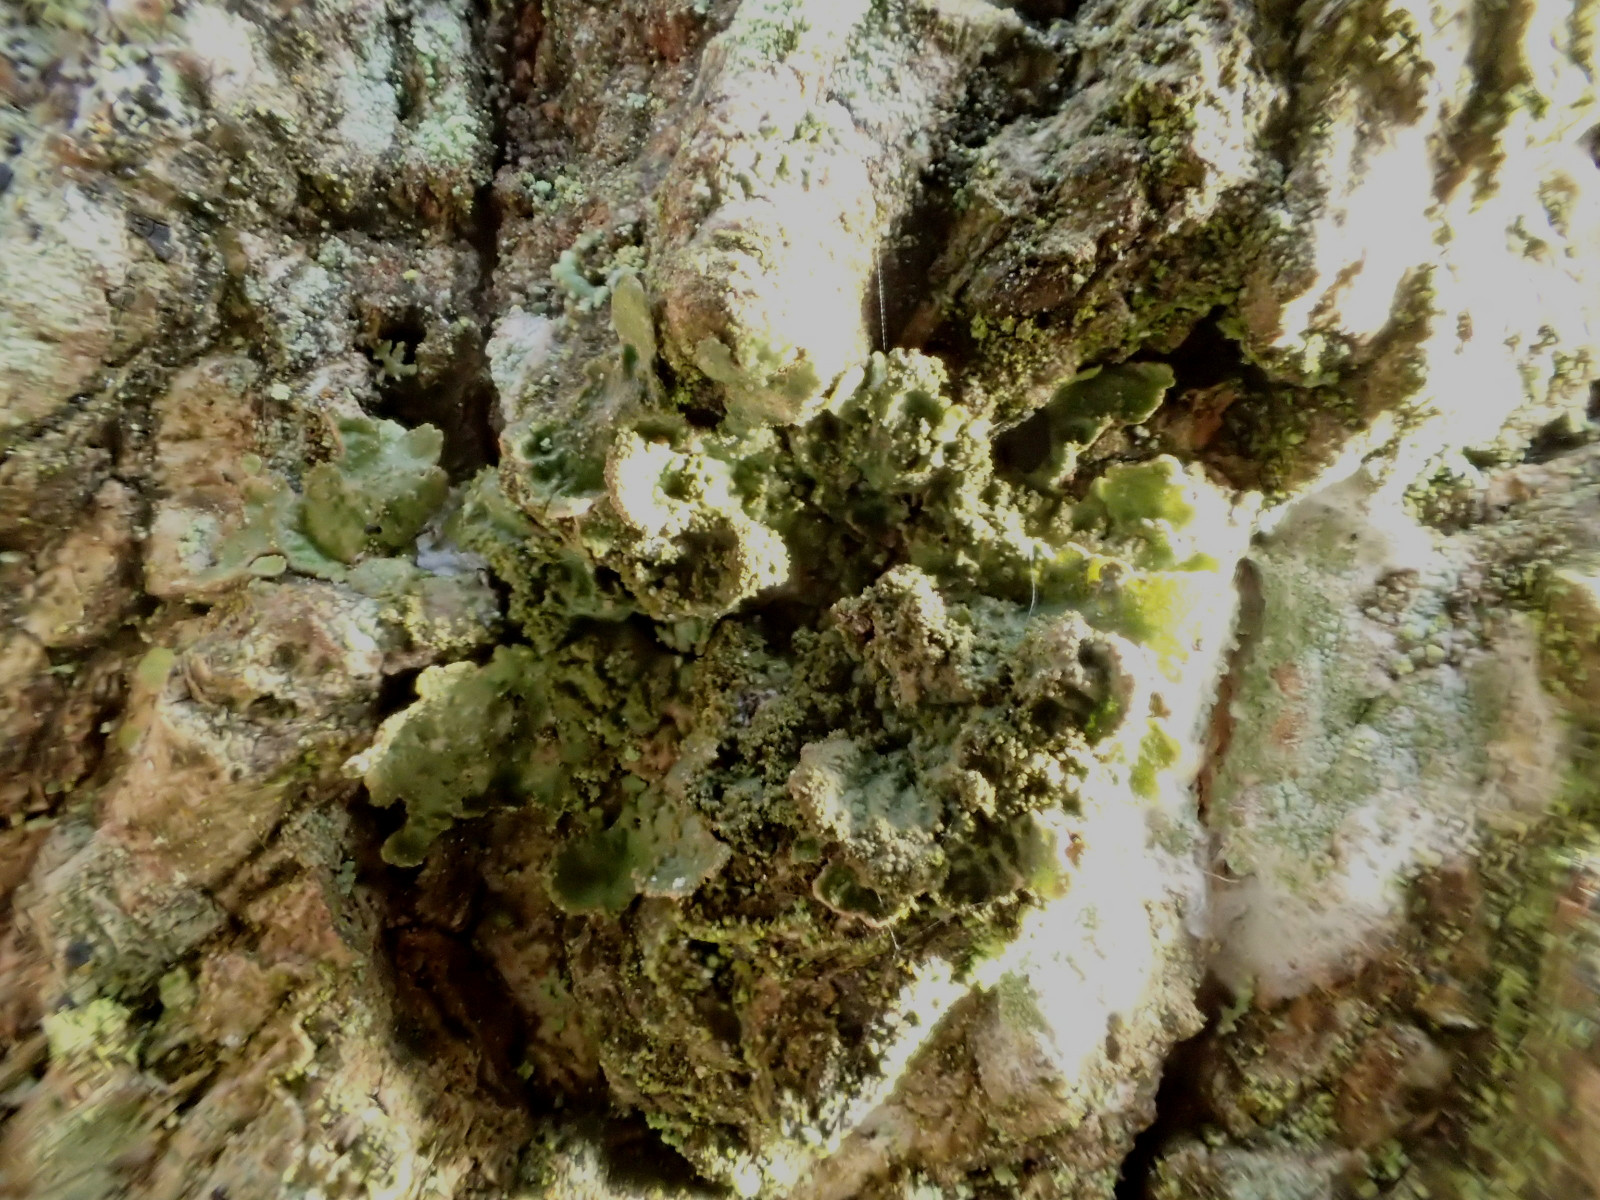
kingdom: Fungi
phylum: Ascomycota
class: Lecanoromycetes
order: Lecanorales
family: Parmeliaceae
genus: Melanelixia
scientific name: Melanelixia subaurifera
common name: guldpudret skållav
